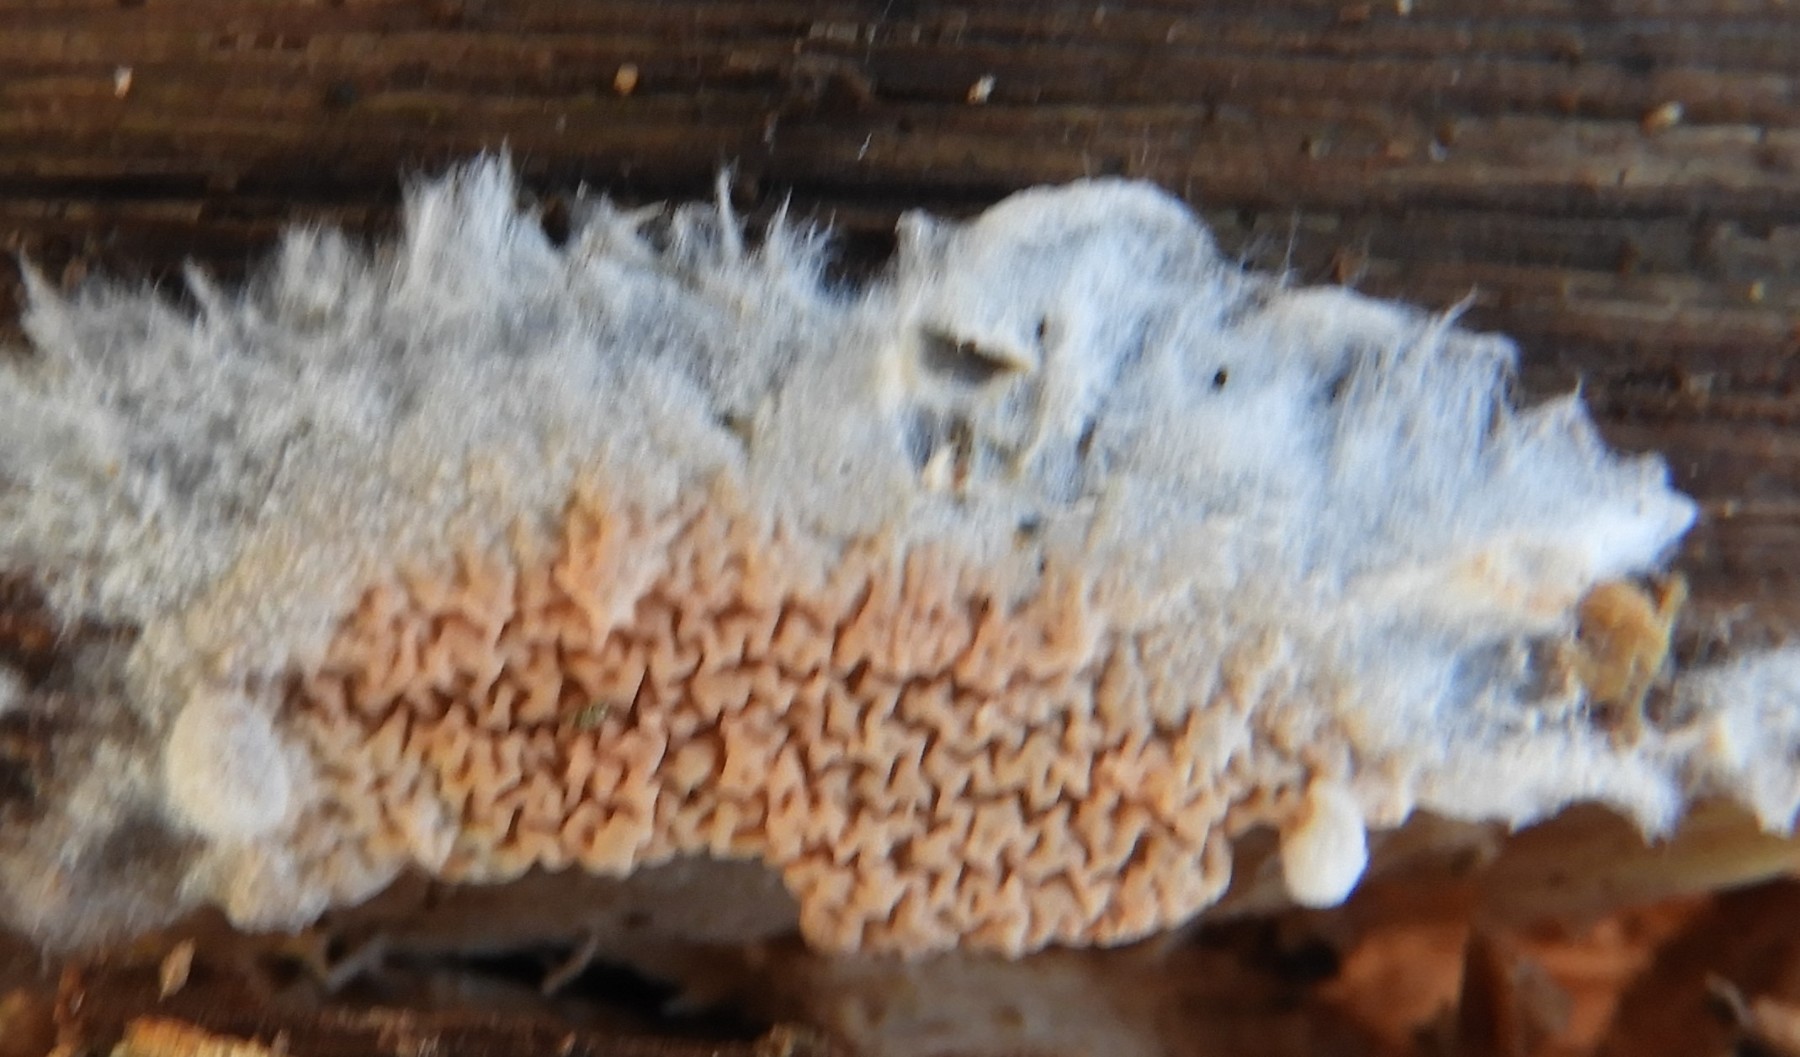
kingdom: Fungi
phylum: Basidiomycota
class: Agaricomycetes
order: Boletales
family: Serpulaceae
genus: Serpula
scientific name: Serpula himantioides
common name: tyndkødet hussvamp
